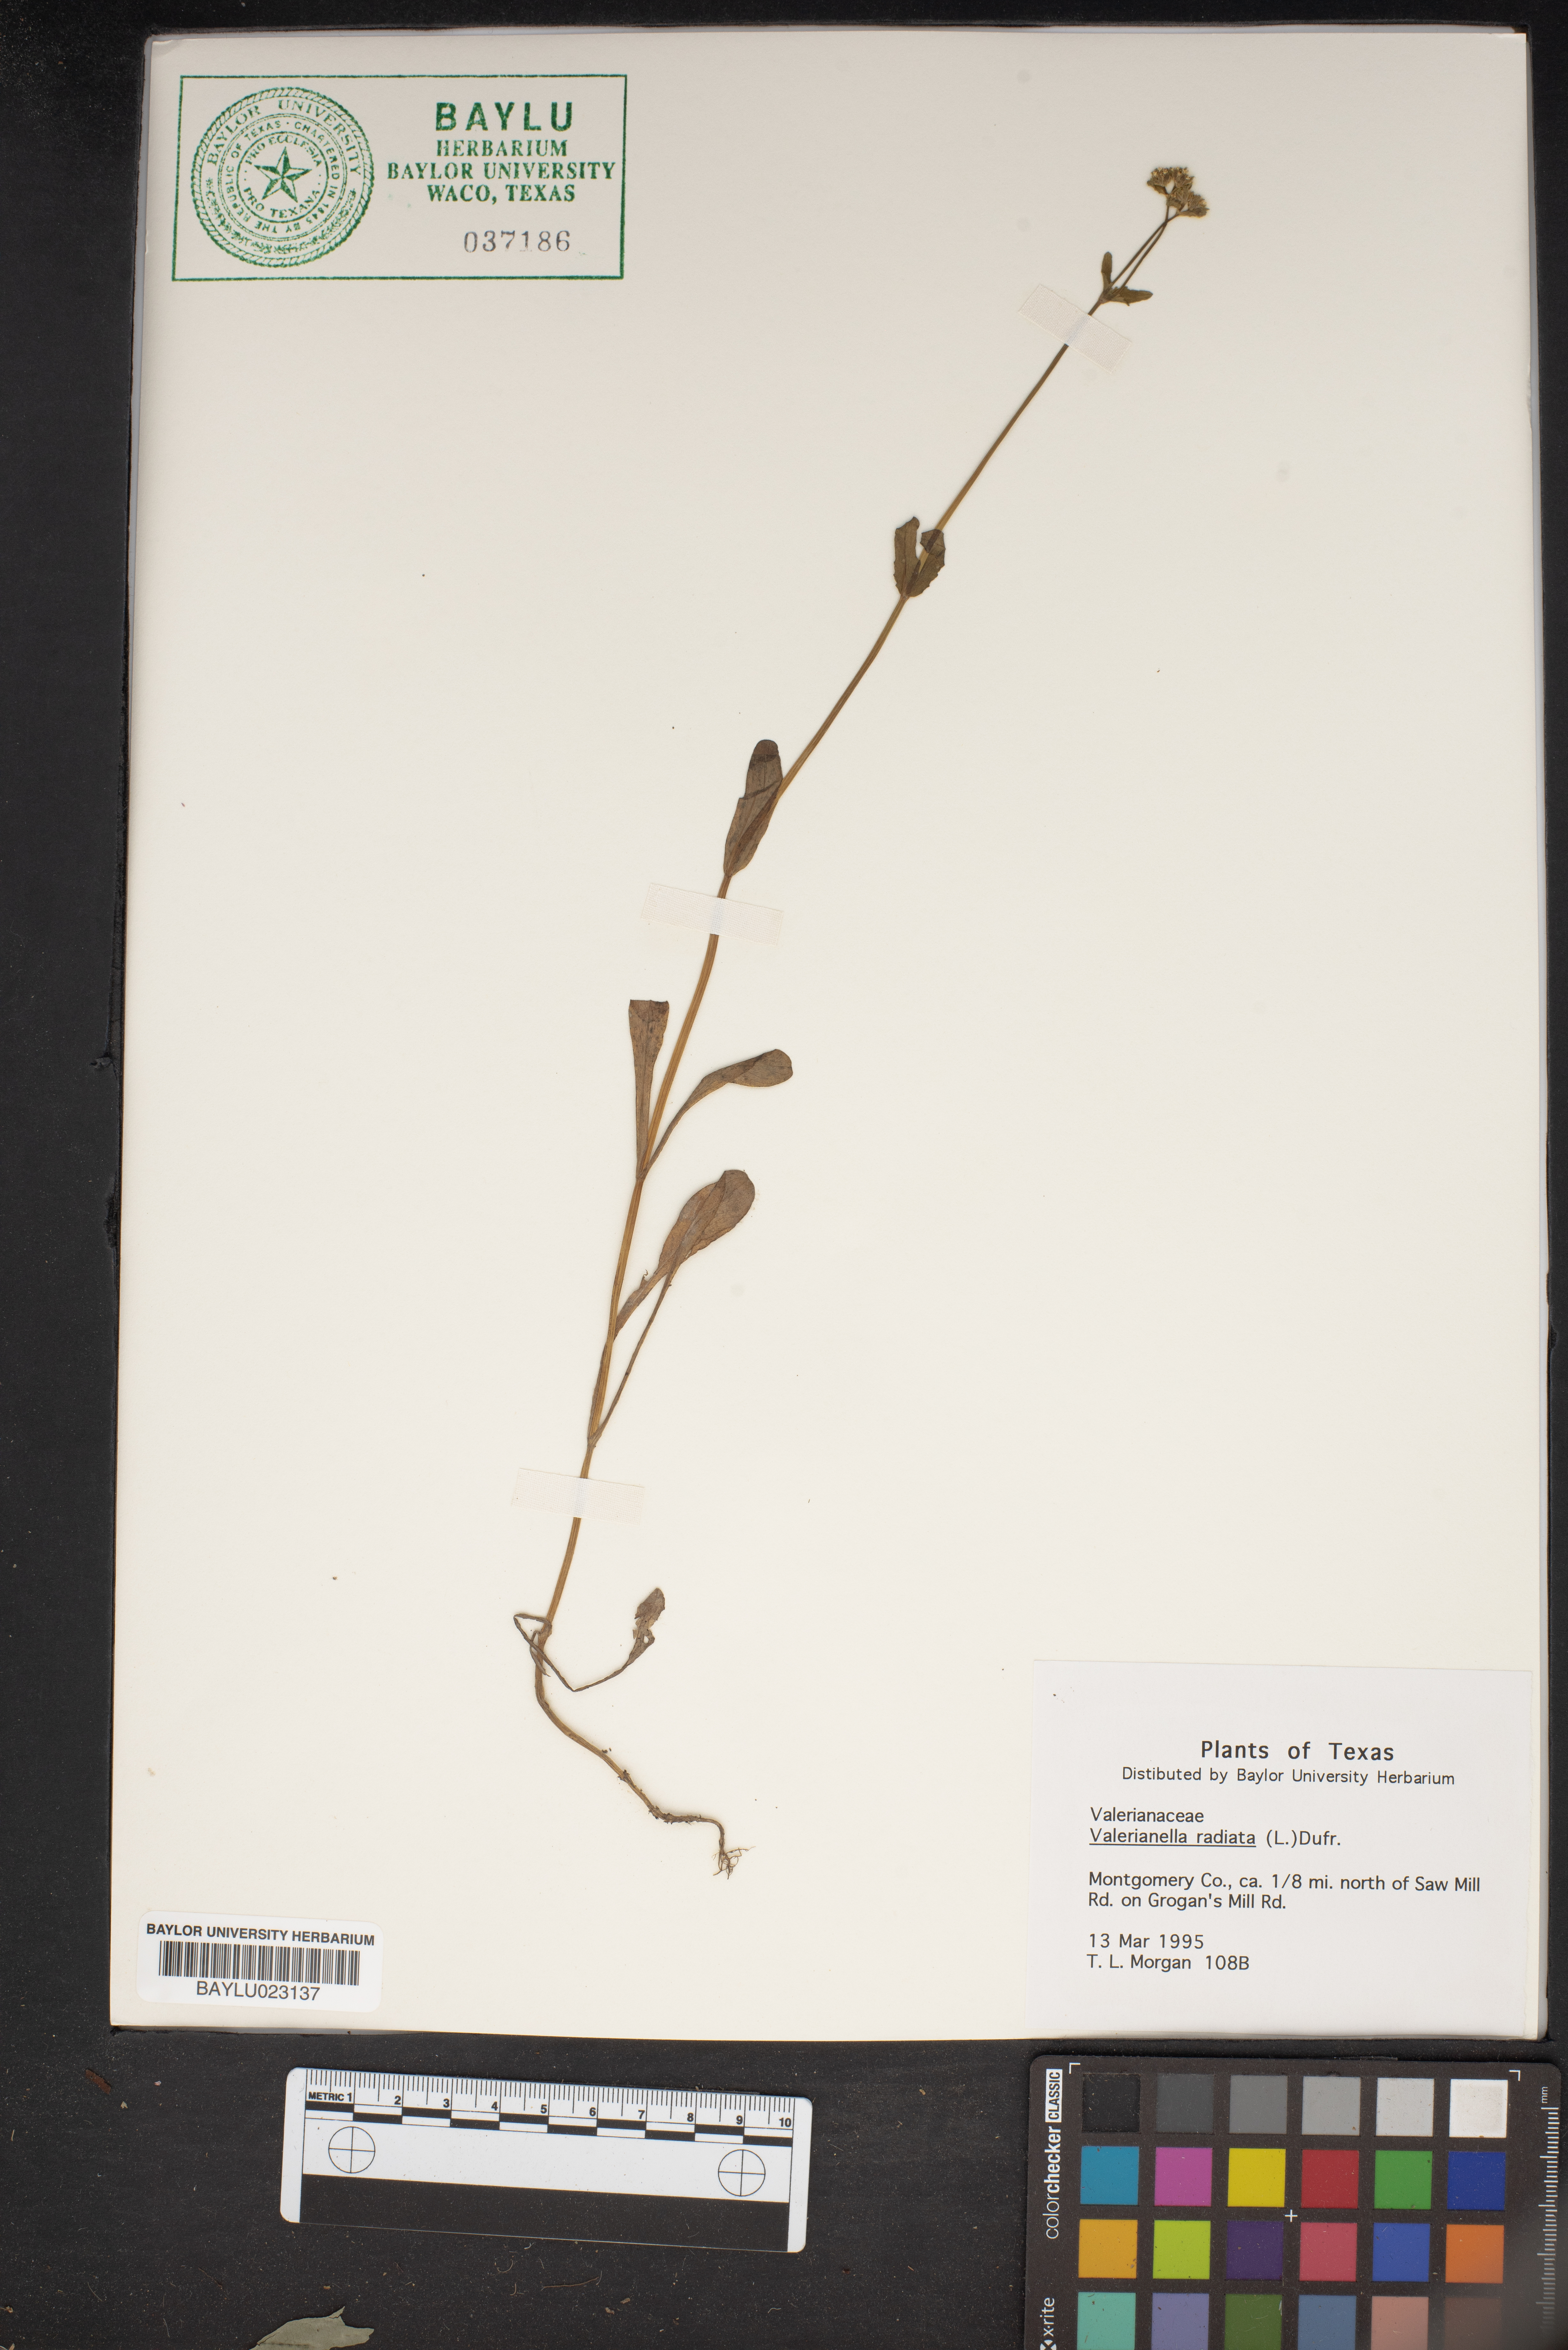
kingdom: Plantae
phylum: Tracheophyta
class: Magnoliopsida
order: Dipsacales
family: Caprifoliaceae
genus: Valerianella
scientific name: Valerianella radiata
